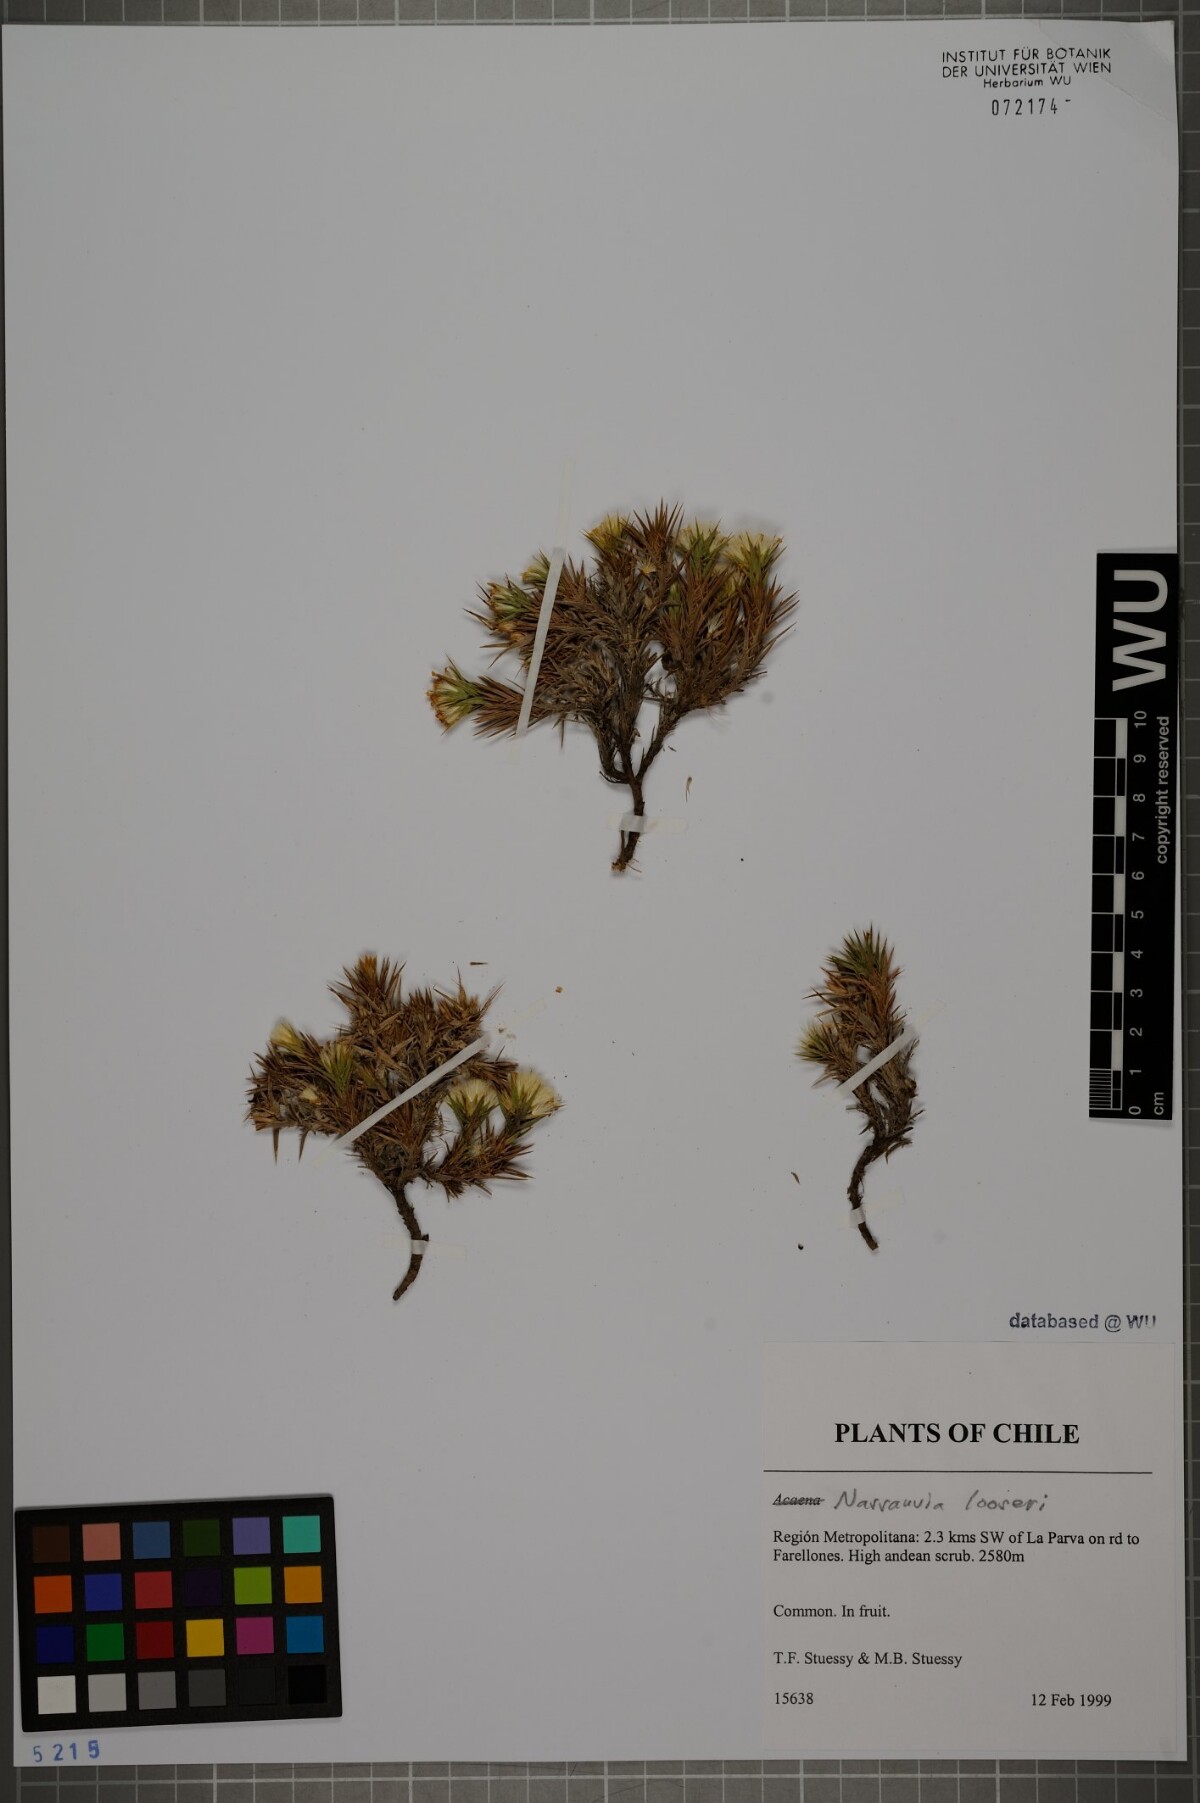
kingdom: Plantae
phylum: Tracheophyta
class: Magnoliopsida
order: Asterales
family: Asteraceae
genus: Nassauvia
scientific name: Nassauvia looseri
